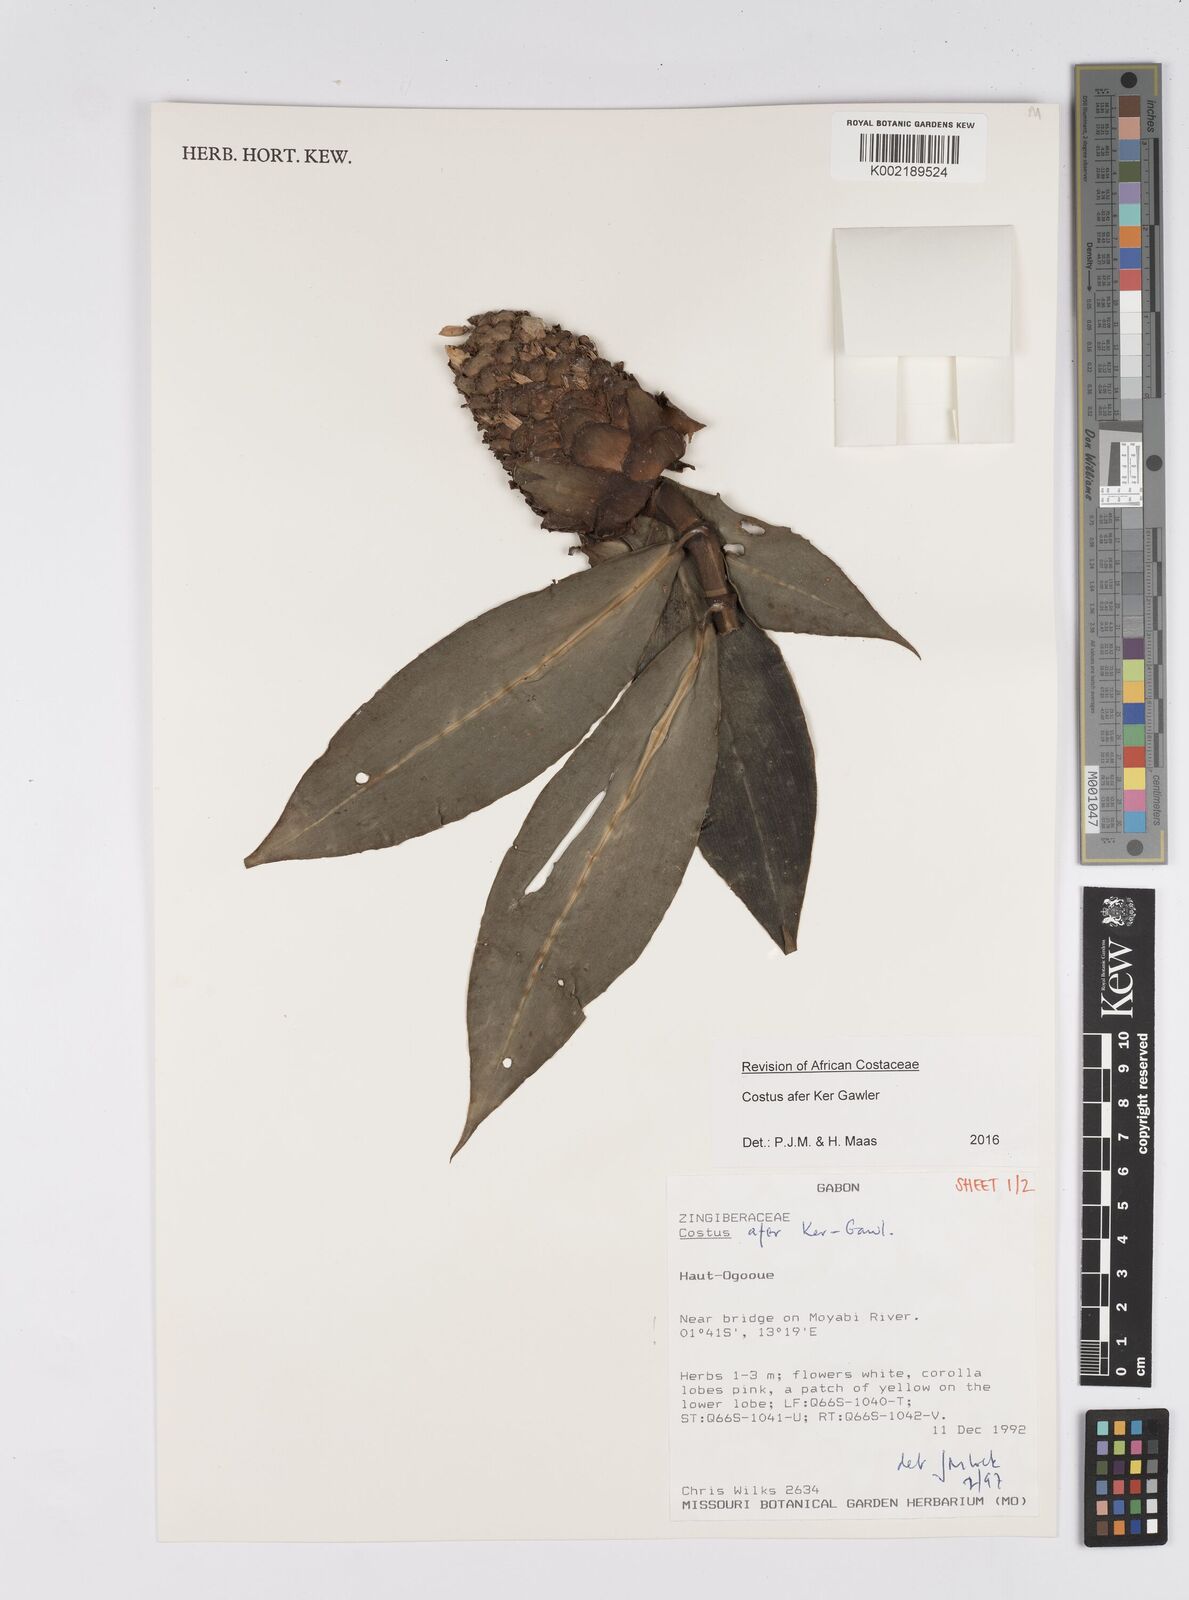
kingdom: Plantae
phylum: Tracheophyta
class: Liliopsida
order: Zingiberales
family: Costaceae
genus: Costus
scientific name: Costus afer
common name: Spiral-ginger
